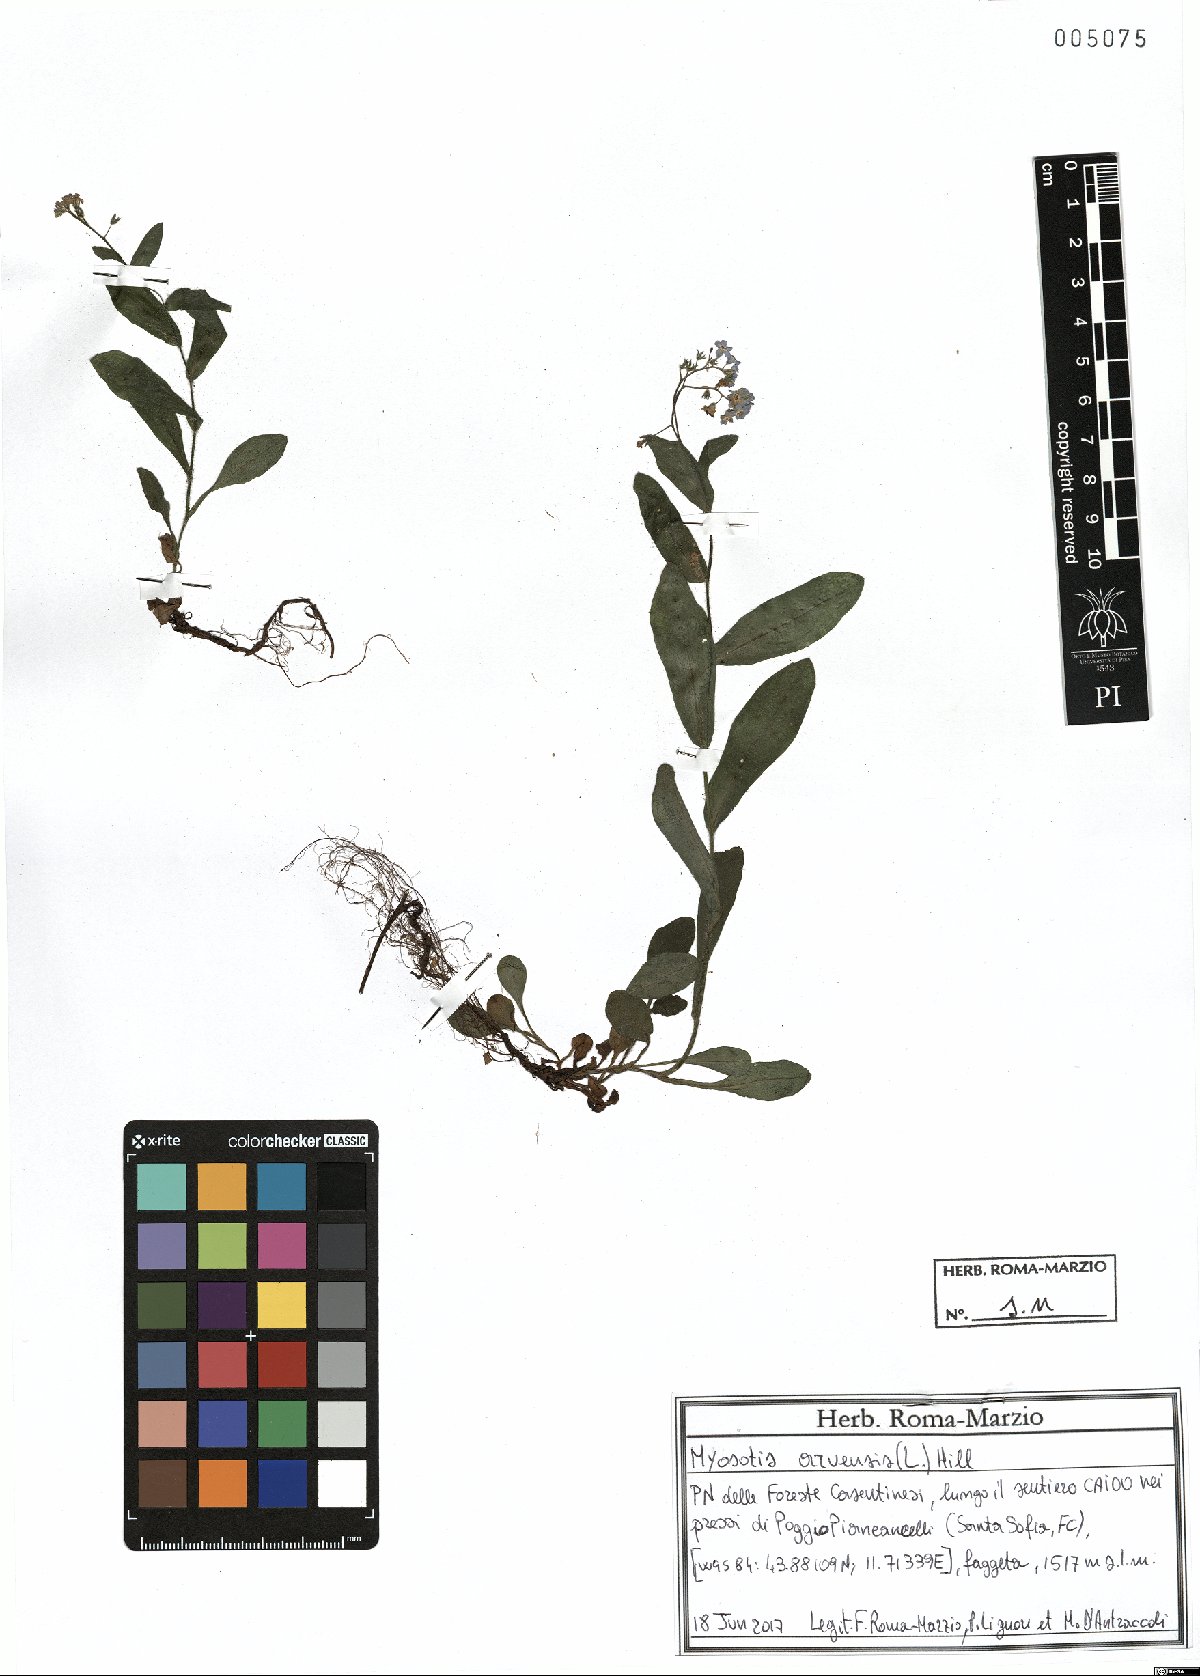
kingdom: Plantae
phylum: Tracheophyta
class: Magnoliopsida
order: Boraginales
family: Boraginaceae
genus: Myosotis
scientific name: Myosotis arvensis
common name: Field forget-me-not
